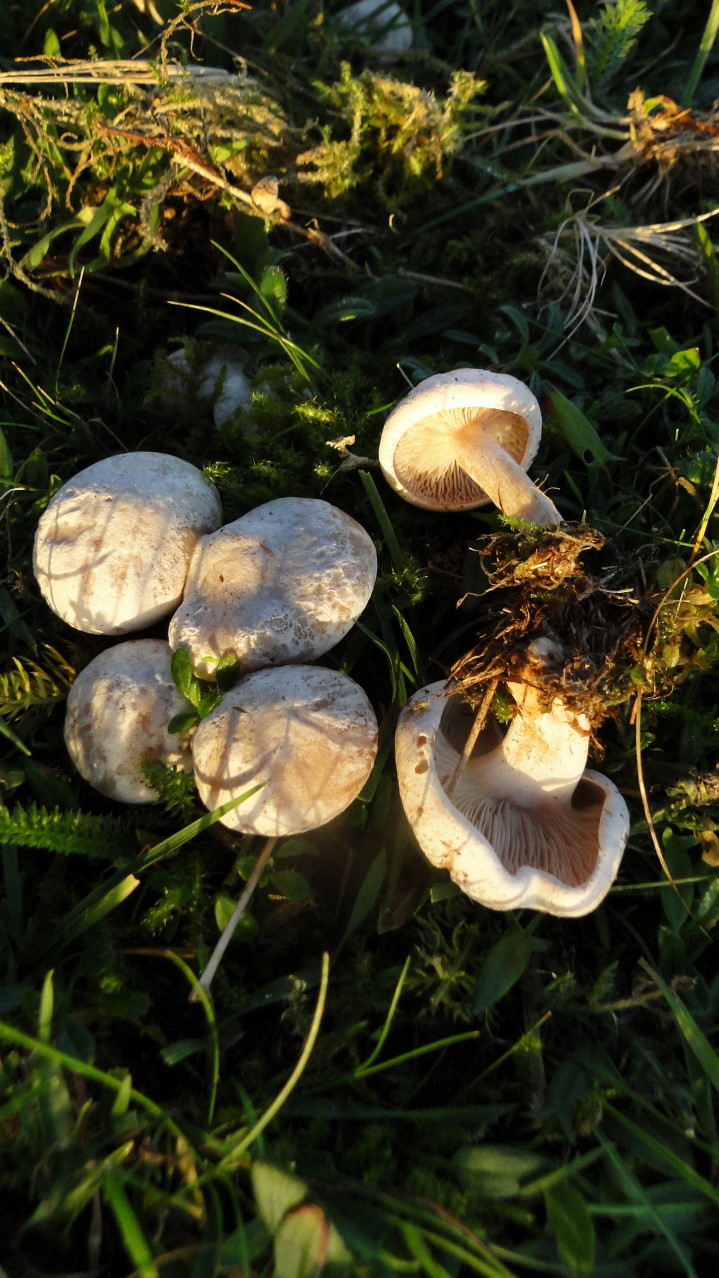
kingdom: Fungi
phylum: Basidiomycota
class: Agaricomycetes
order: Agaricales
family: Tricholomataceae
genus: Clitocybe
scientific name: Clitocybe rivulosa
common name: eng-tragthat
